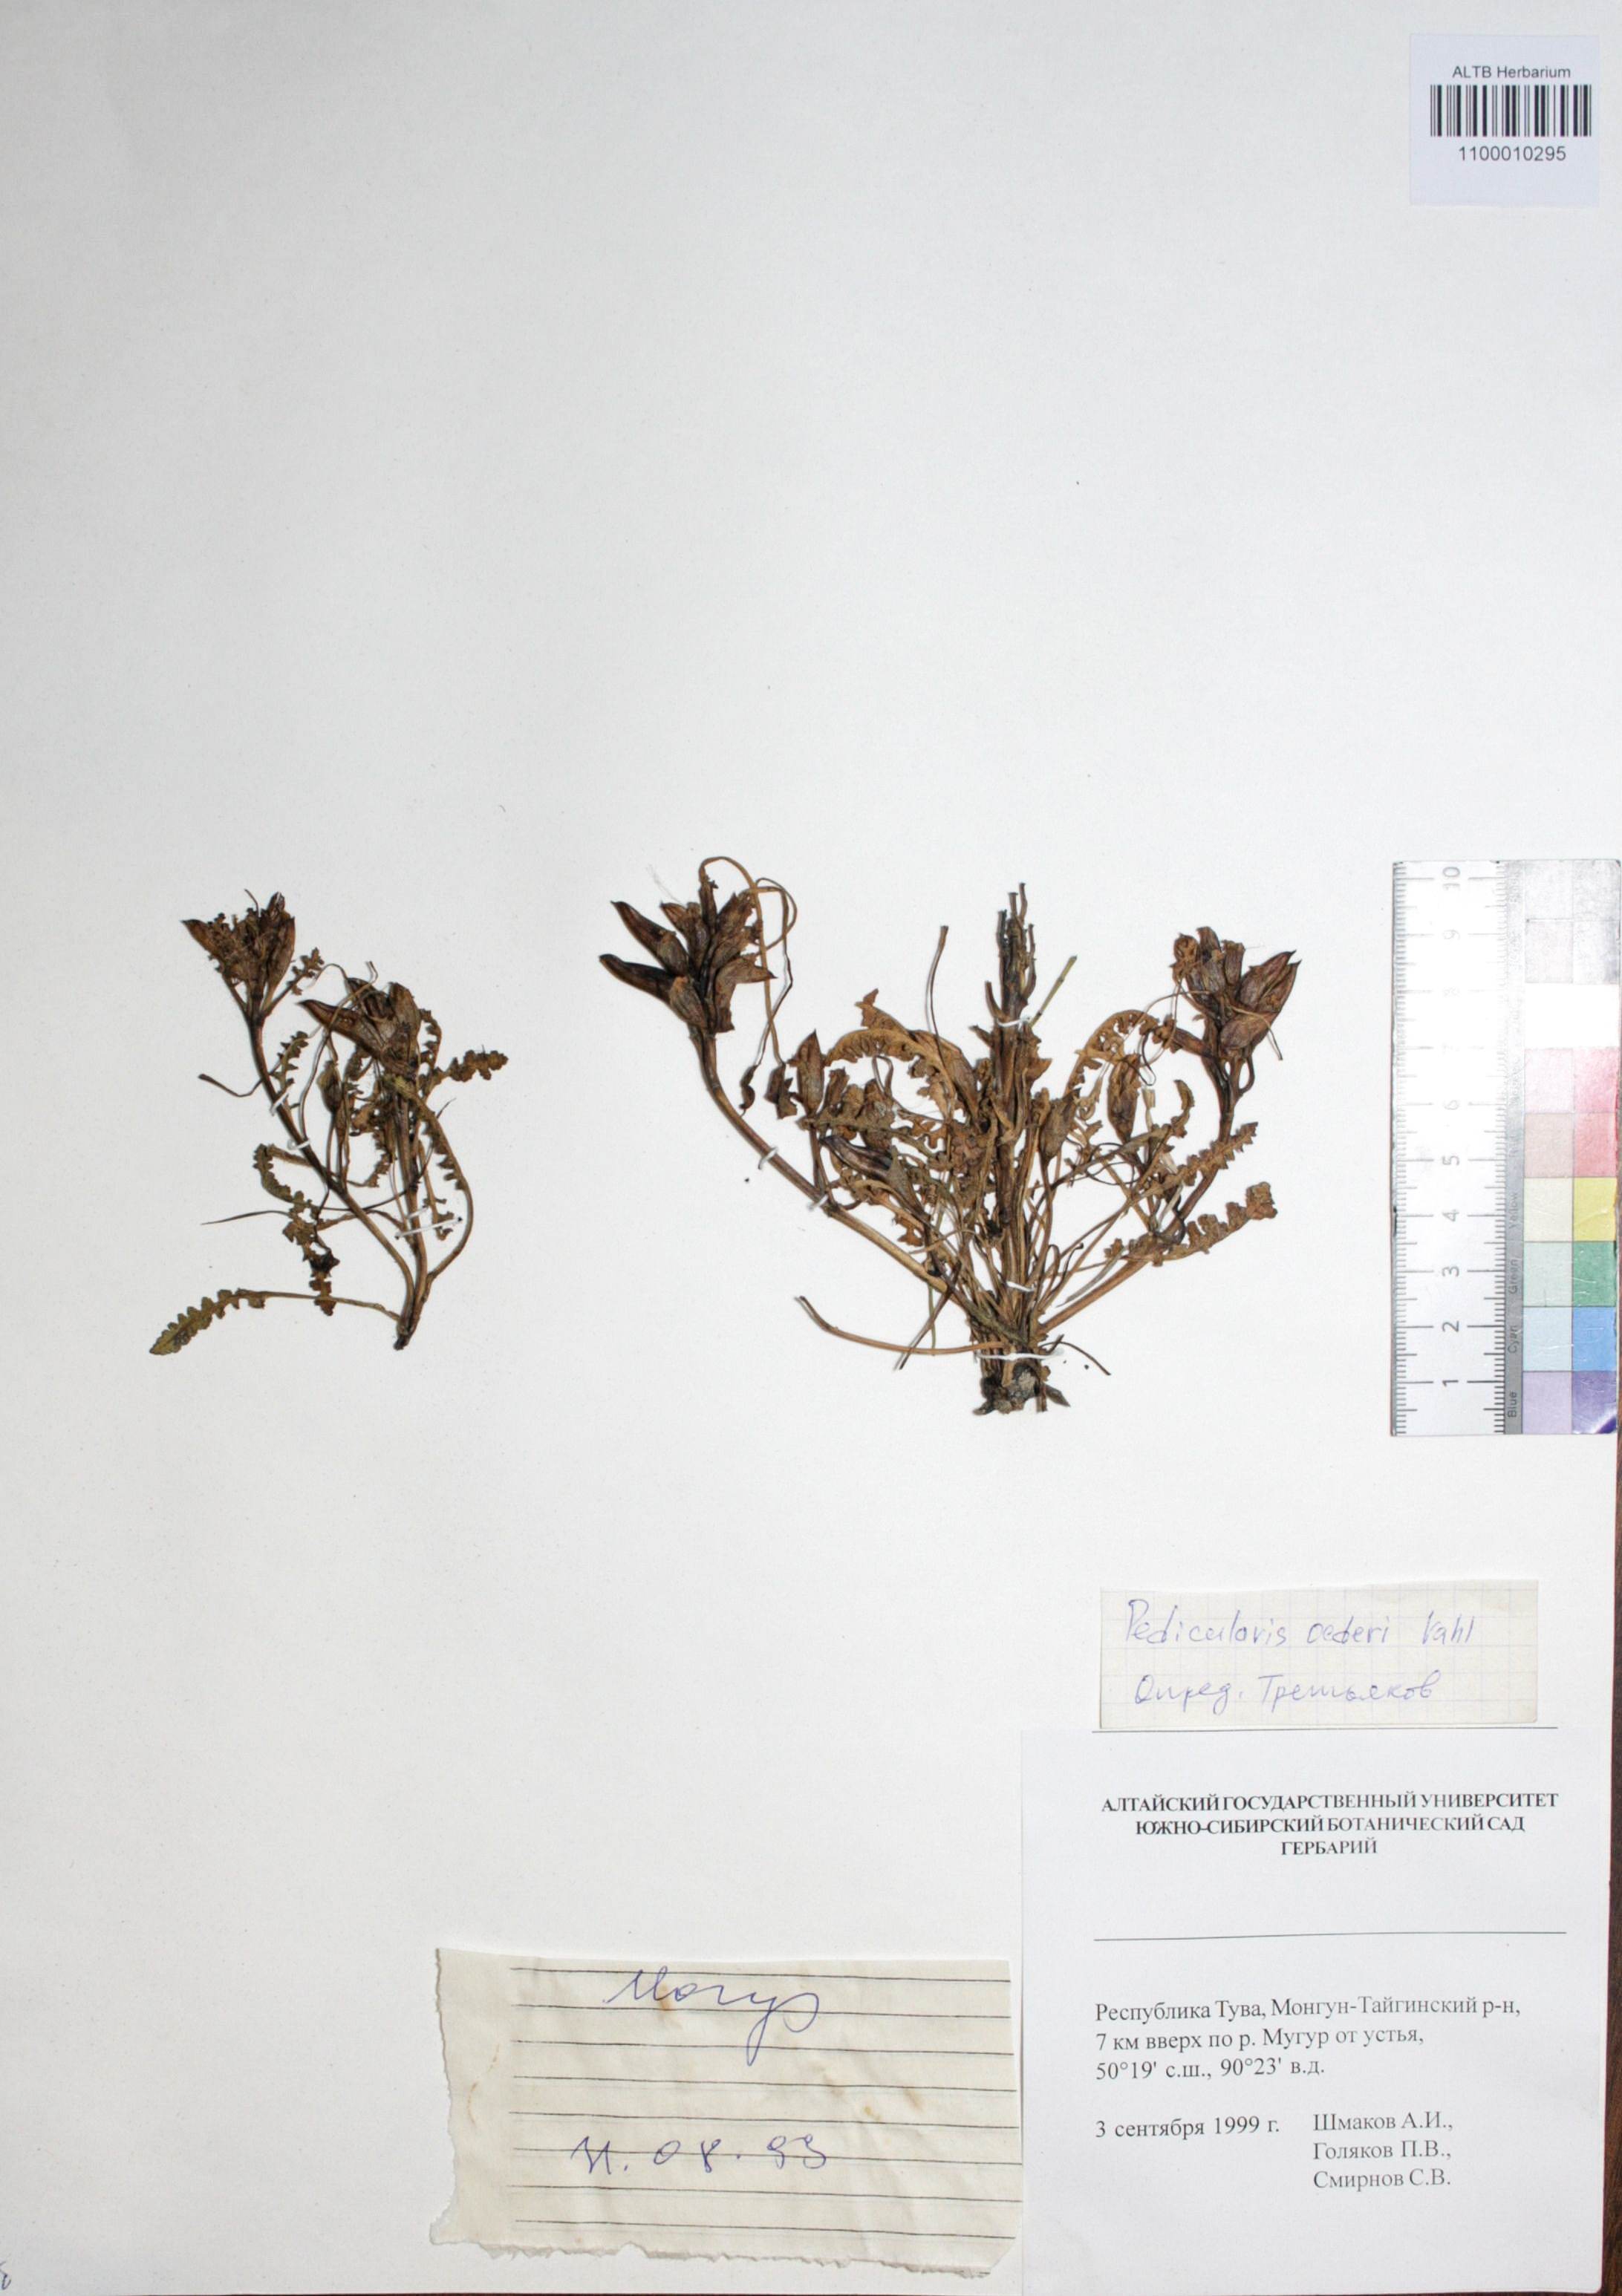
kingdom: Plantae
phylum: Tracheophyta
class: Magnoliopsida
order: Caryophyllales
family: Caryophyllaceae
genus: Silene
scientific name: Silene graminifolia
